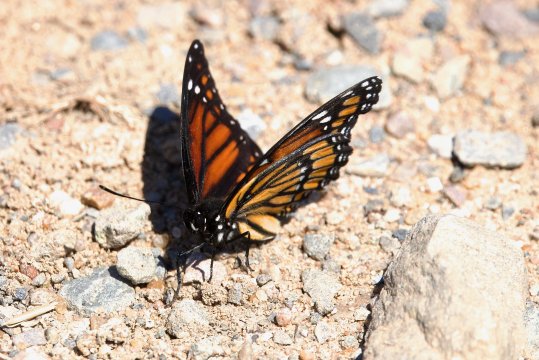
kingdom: Animalia
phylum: Arthropoda
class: Insecta
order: Lepidoptera
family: Nymphalidae
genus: Limenitis
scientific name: Limenitis archippus
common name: Viceroy
